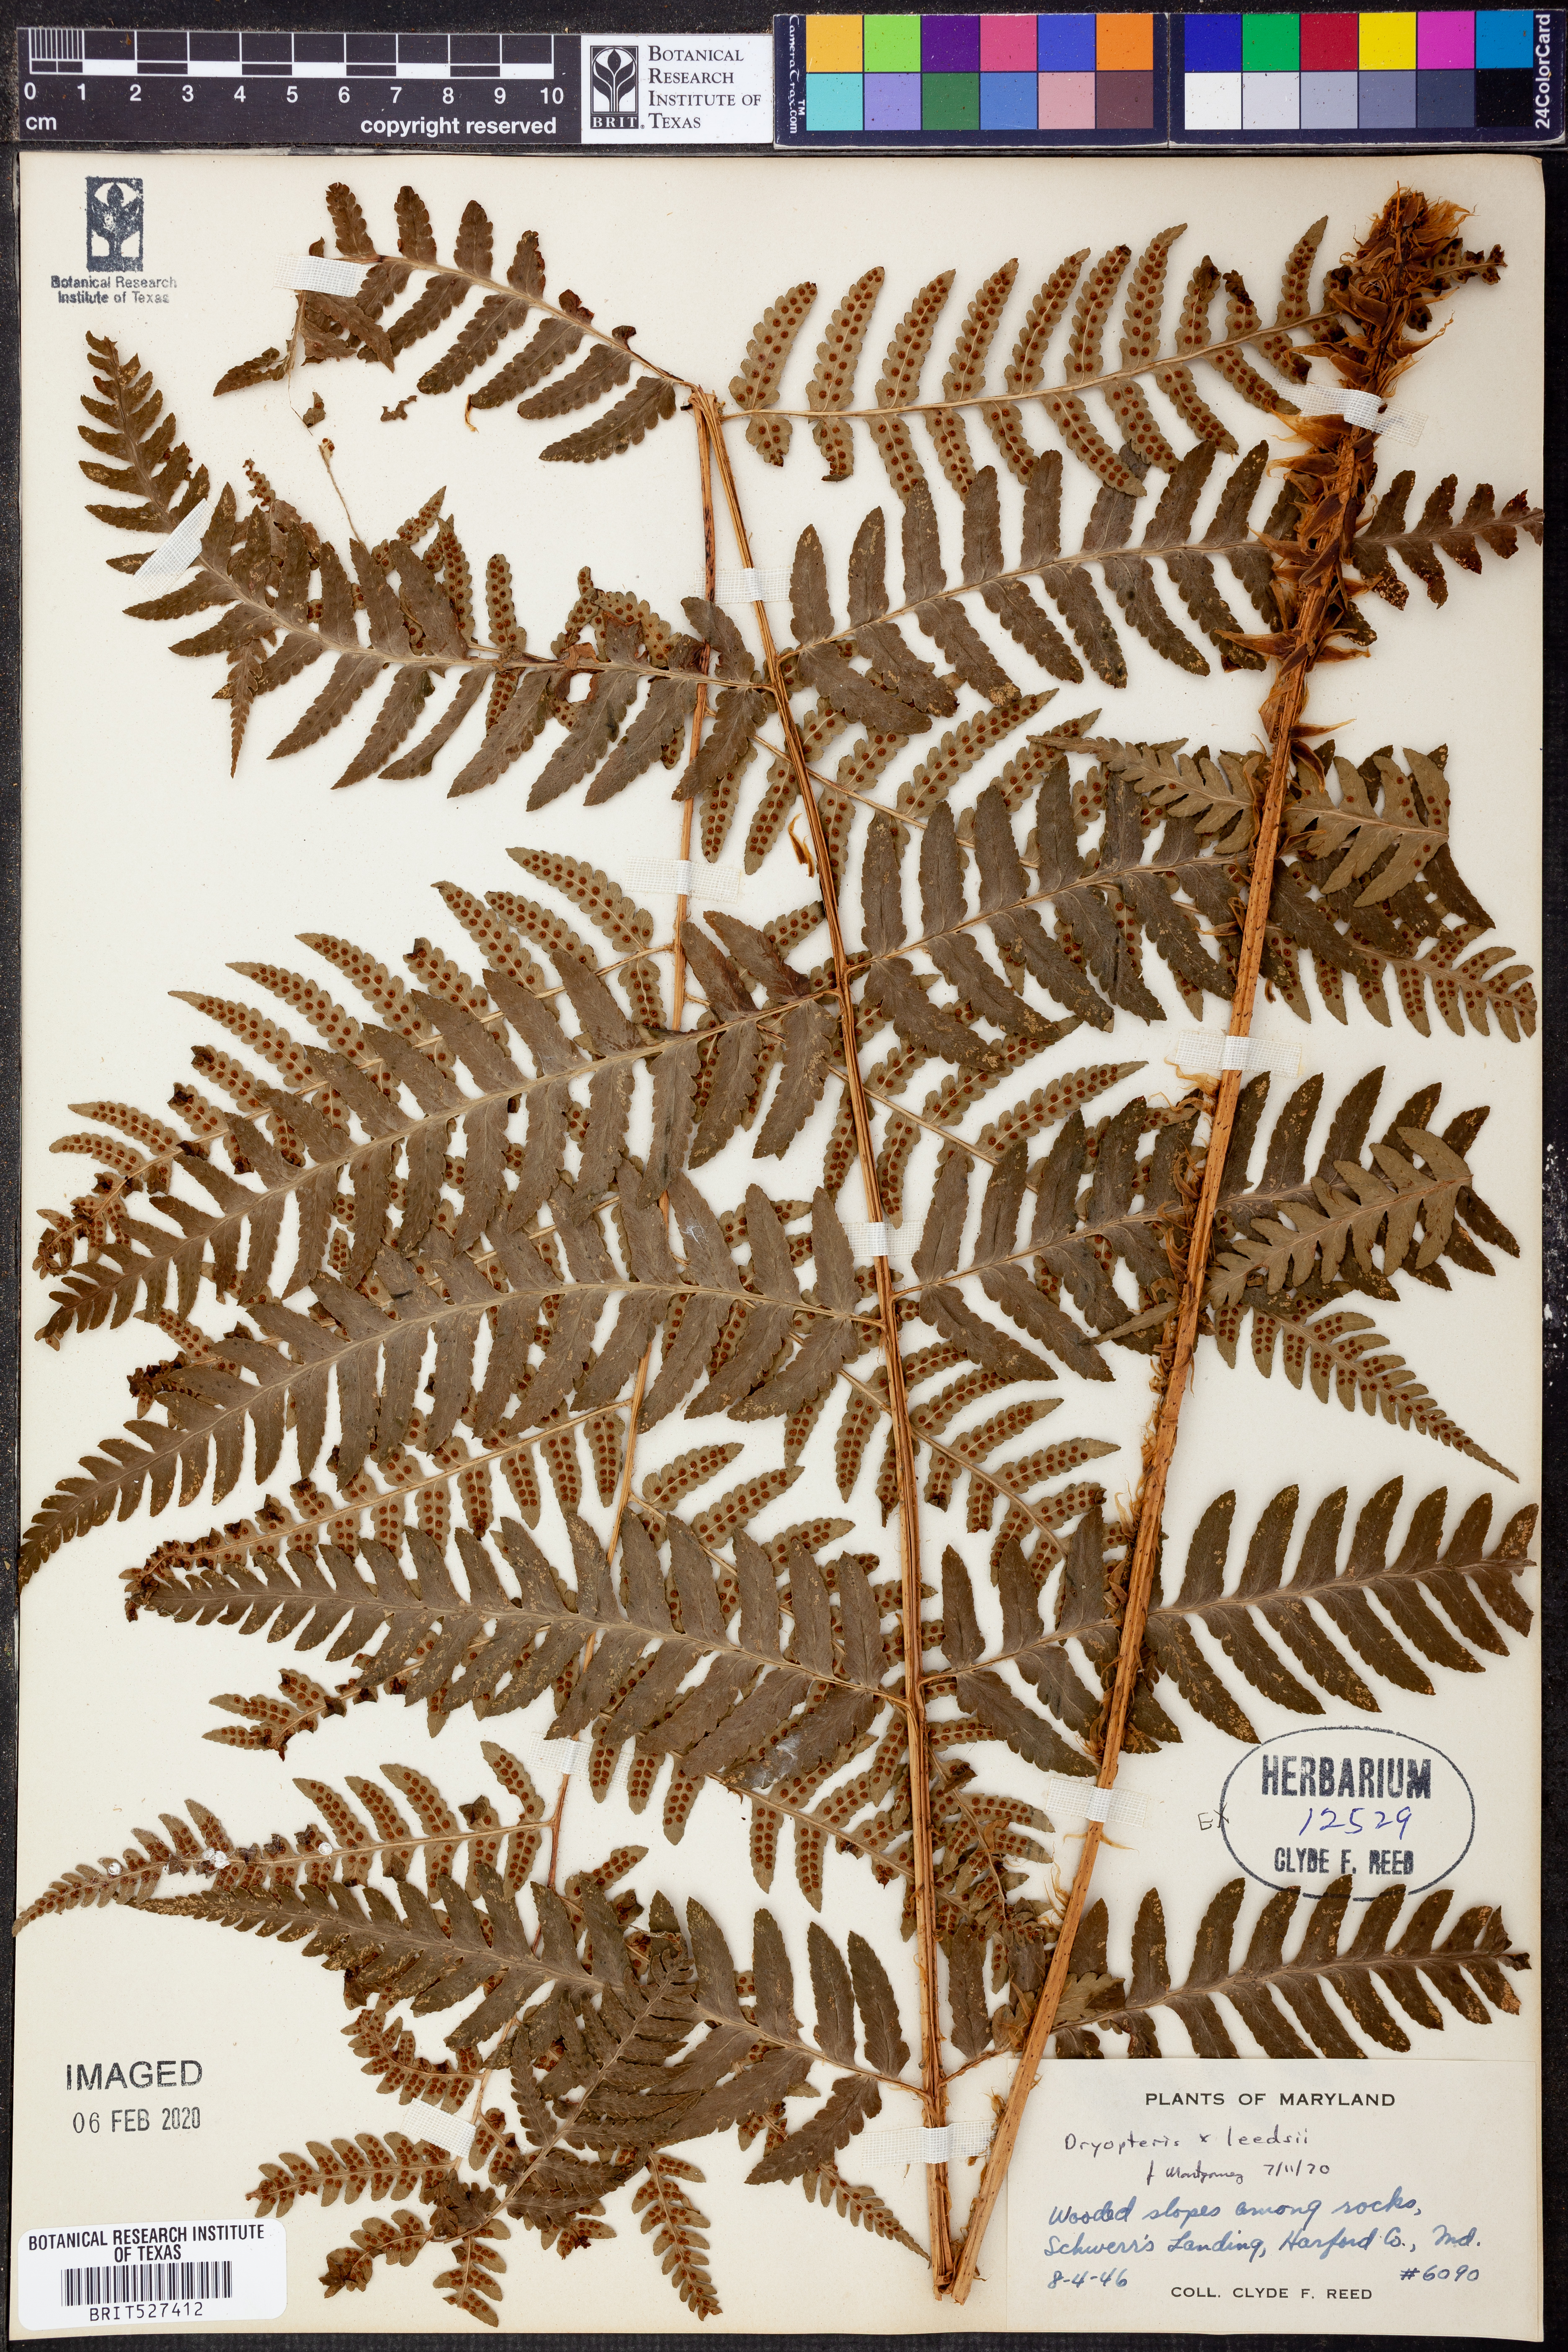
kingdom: Plantae
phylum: Tracheophyta
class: Polypodiopsida
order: Polypodiales
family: Dryopteridaceae
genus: Dryopteris
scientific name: Dryopteris
